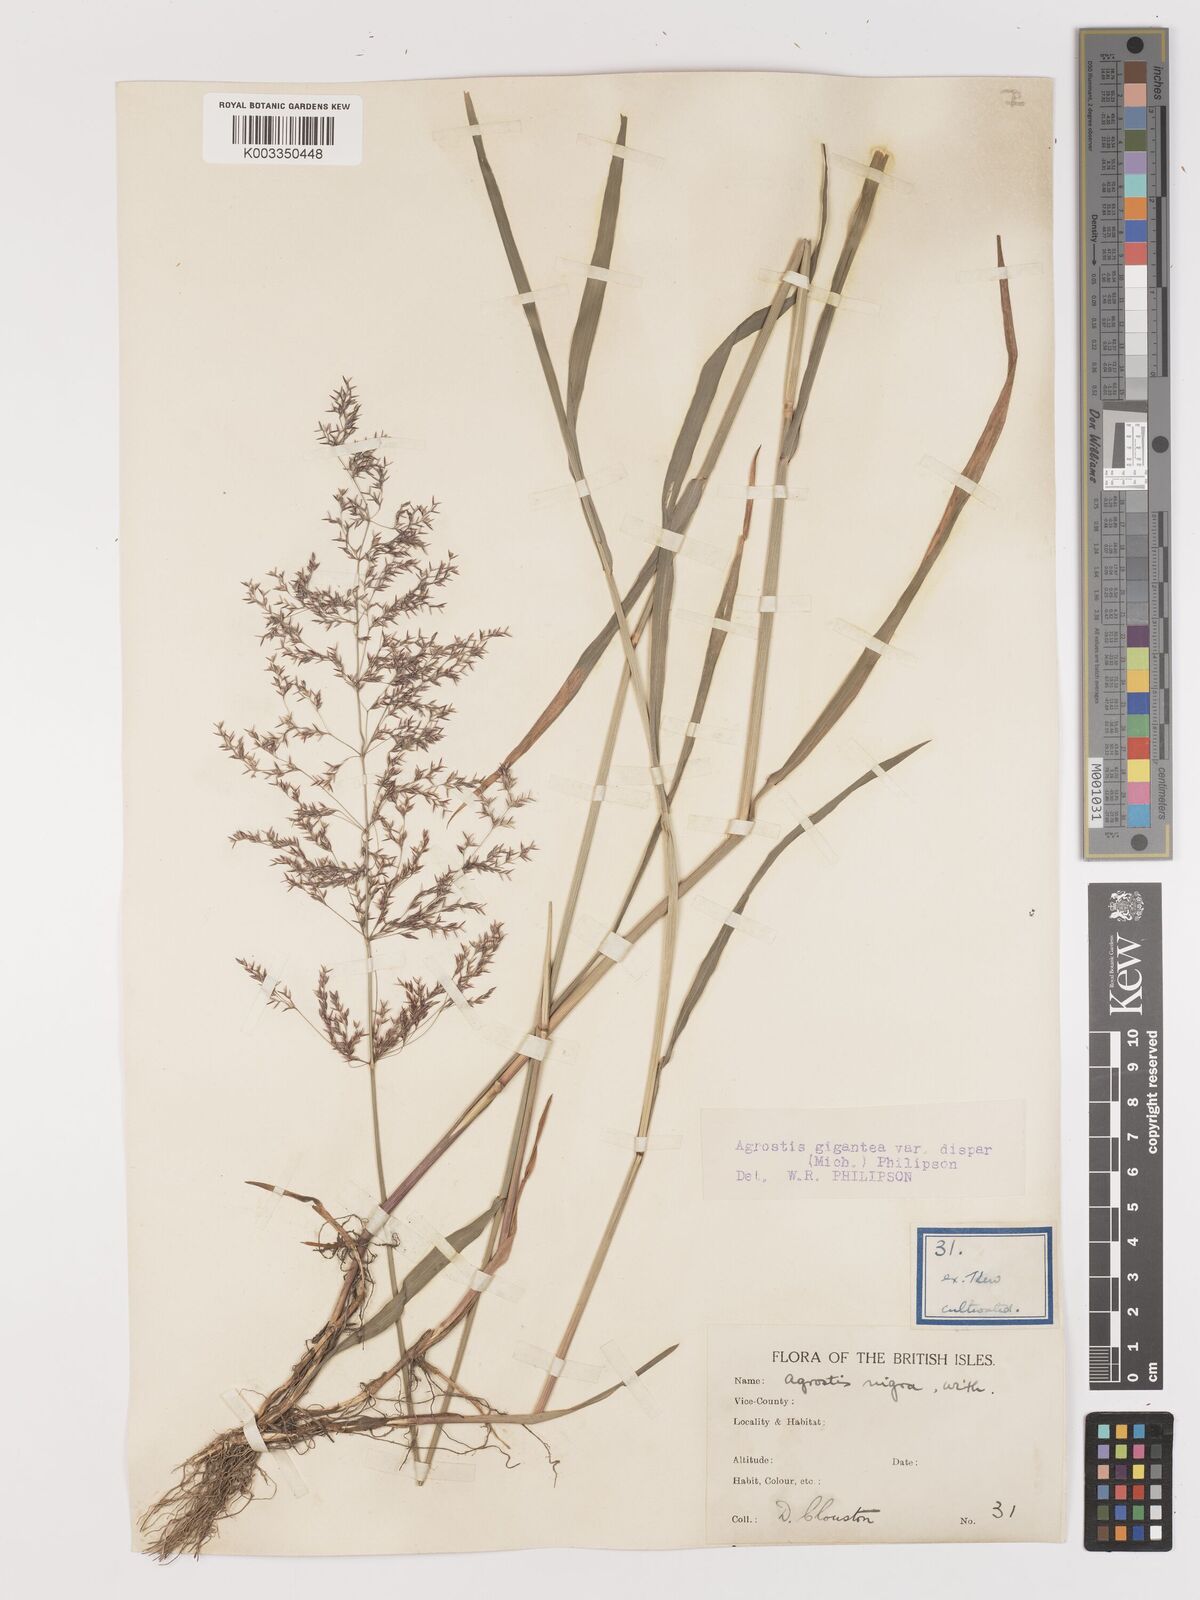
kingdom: Plantae
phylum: Tracheophyta
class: Liliopsida
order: Poales
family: Poaceae
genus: Agrostis
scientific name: Agrostis gigantea
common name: Black bent
